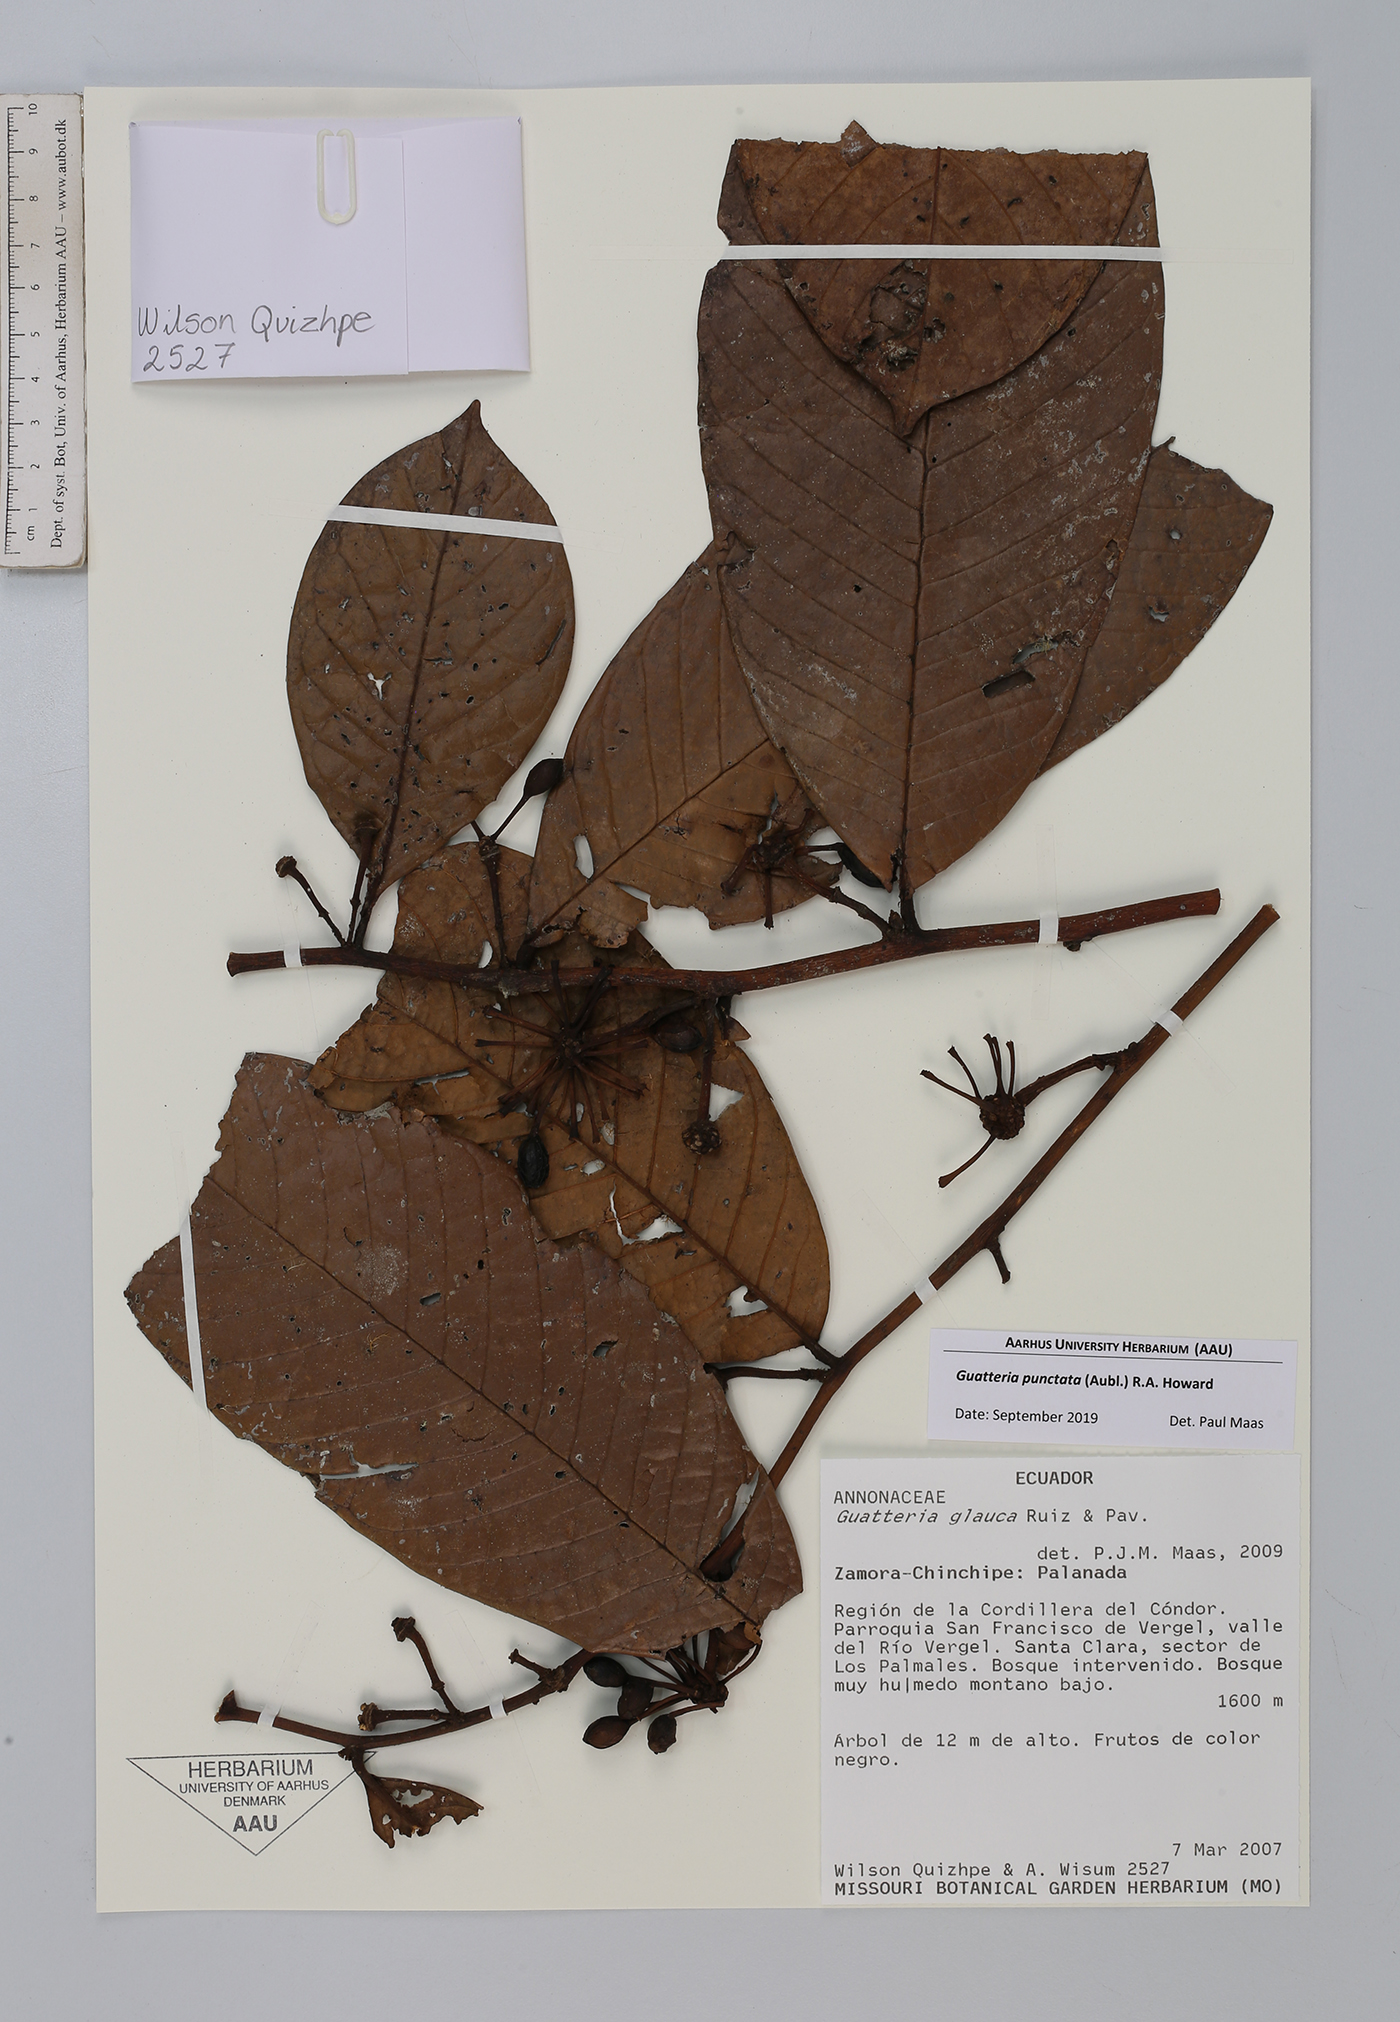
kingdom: Plantae
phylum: Tracheophyta
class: Magnoliopsida
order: Magnoliales
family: Annonaceae
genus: Guatteria
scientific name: Guatteria punctata
